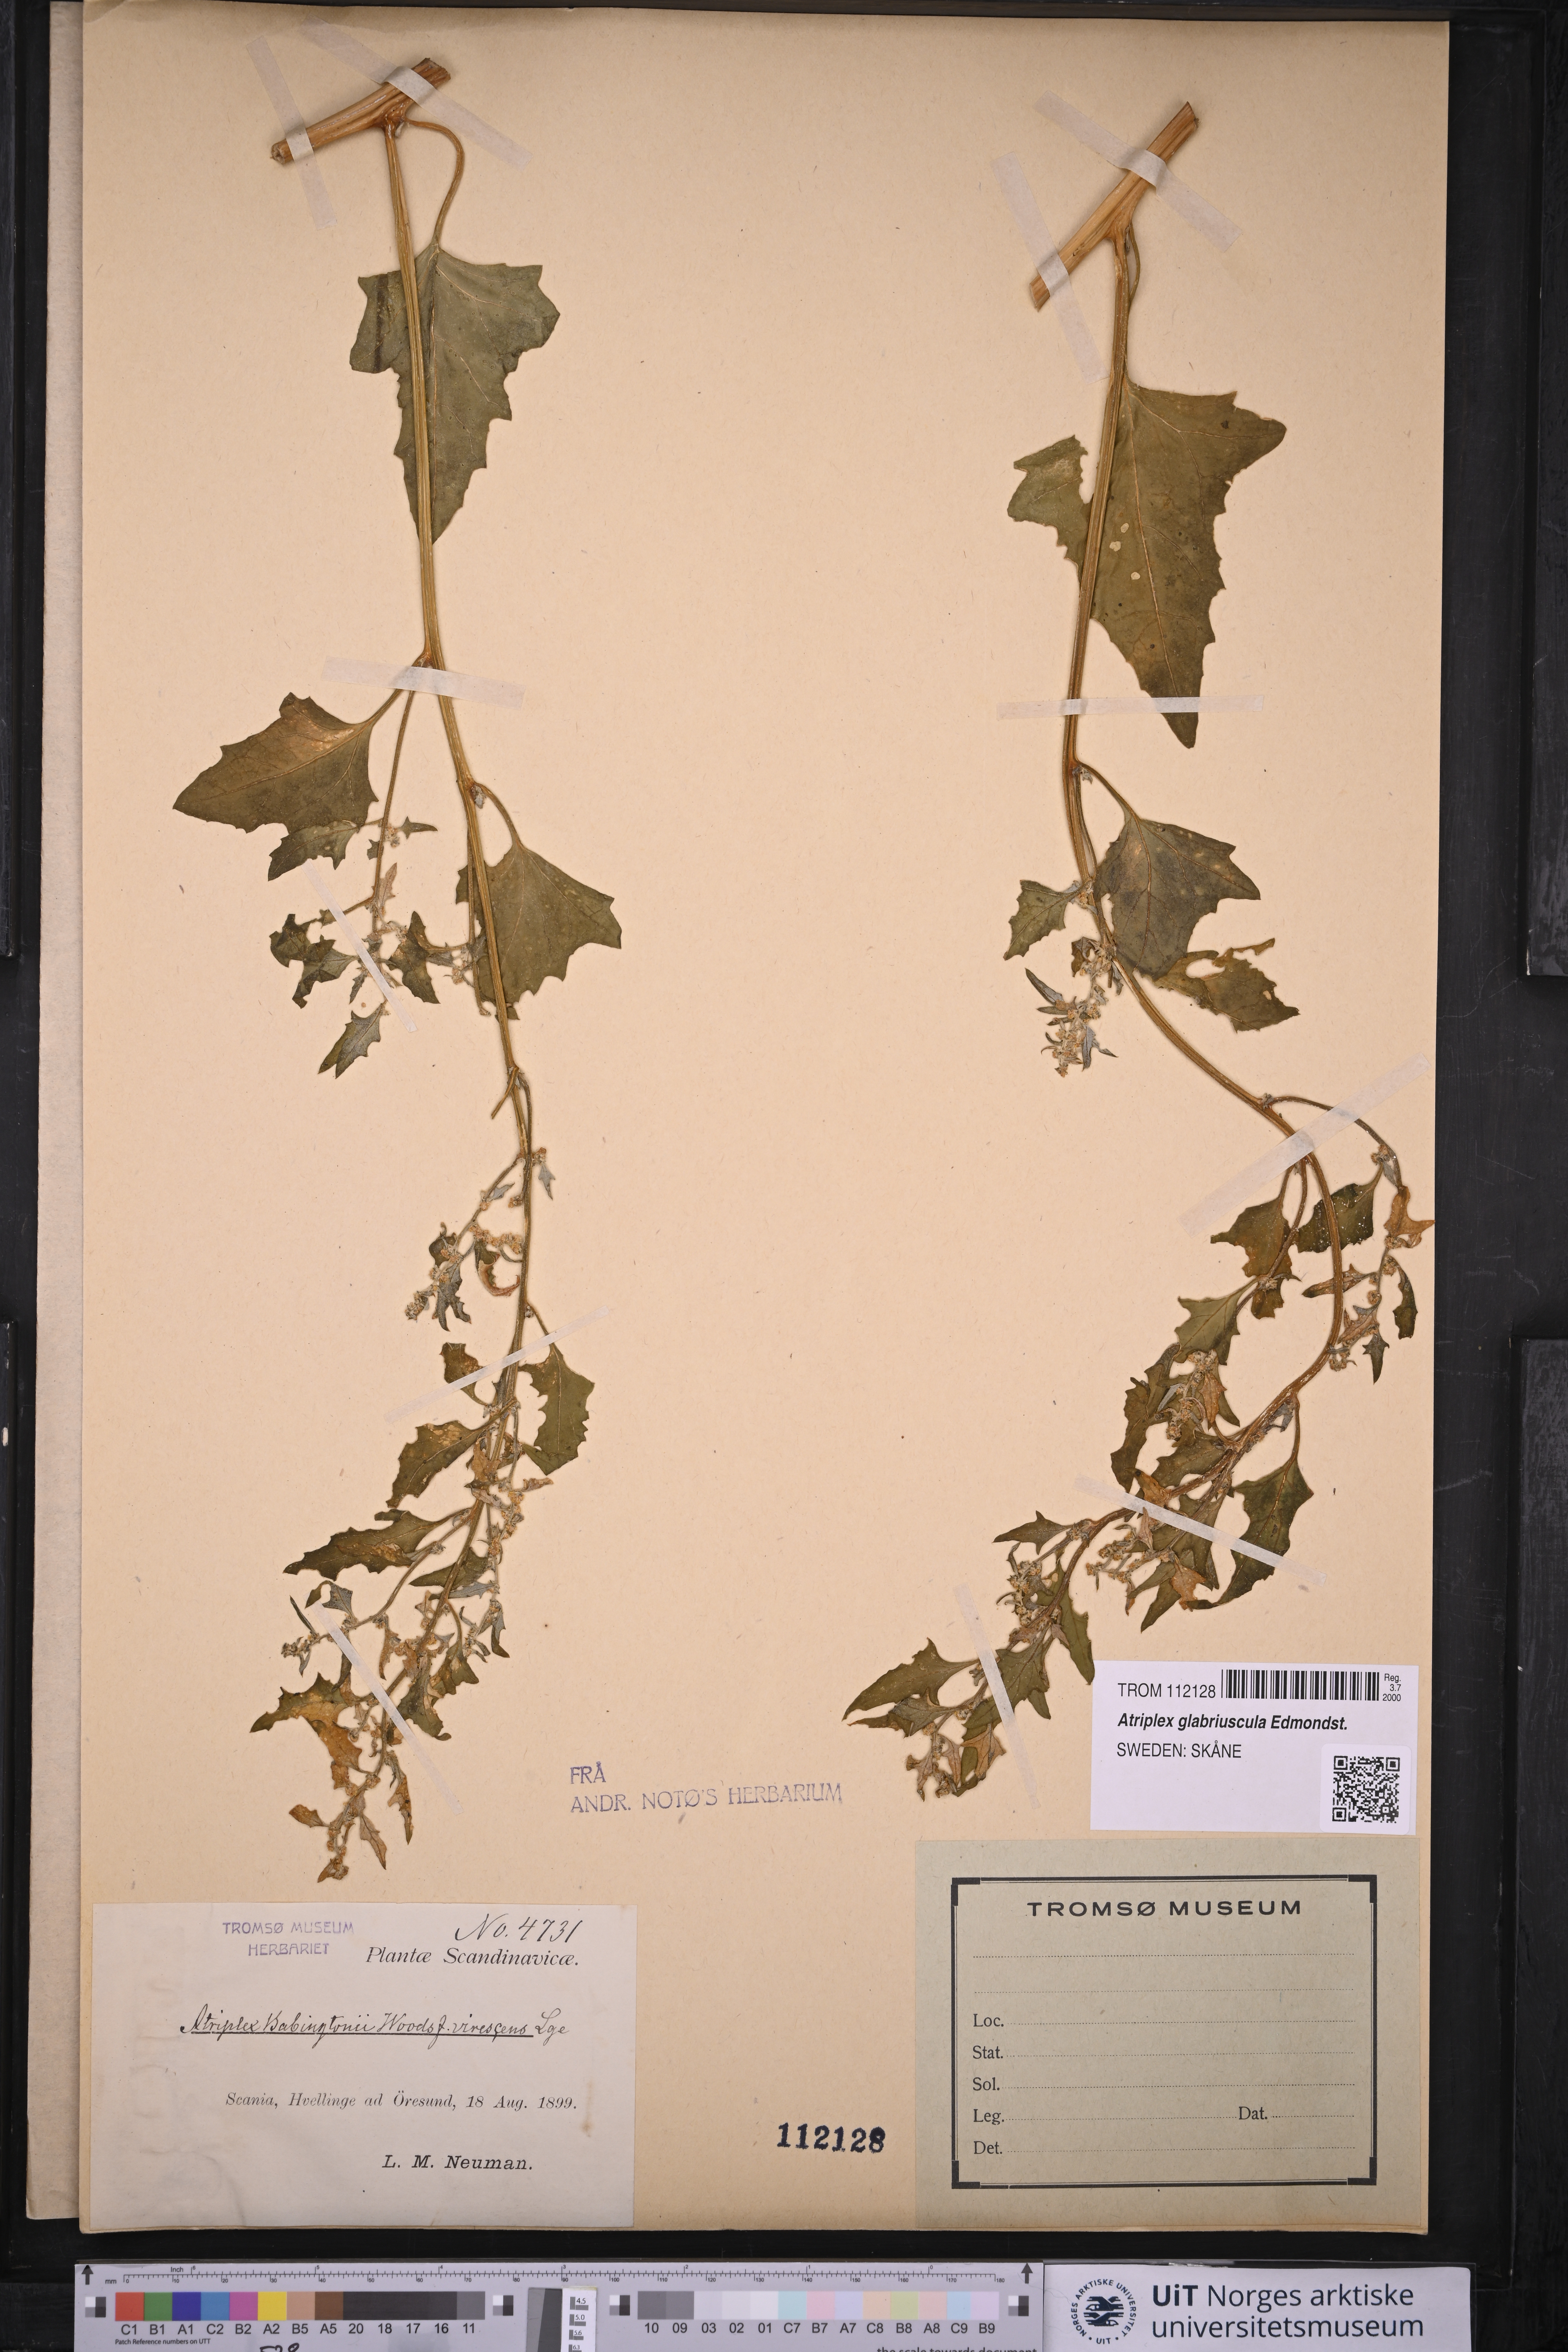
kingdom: Plantae
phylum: Tracheophyta
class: Magnoliopsida
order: Caryophyllales
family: Amaranthaceae
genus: Atriplex
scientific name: Atriplex glabriuscula
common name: Babington's orache
